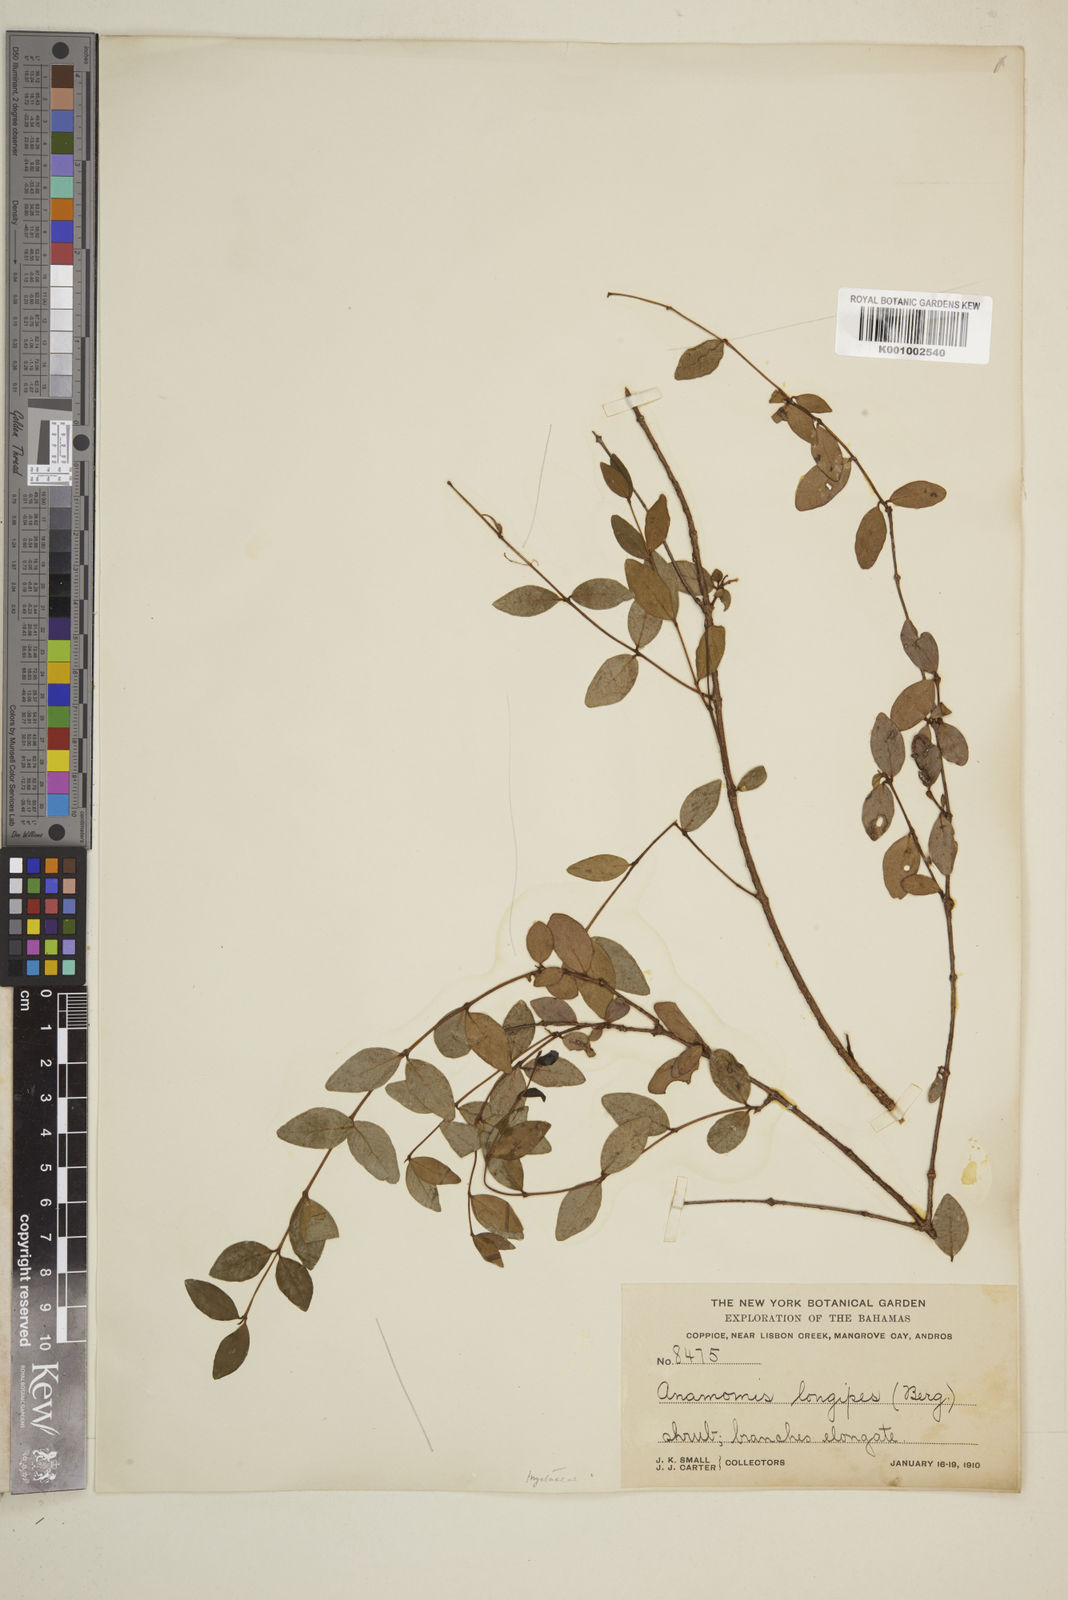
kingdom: Plantae
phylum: Tracheophyta
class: Magnoliopsida
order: Myrtales
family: Myrtaceae
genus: Mosiera
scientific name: Mosiera longipes
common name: Bahama stopper
